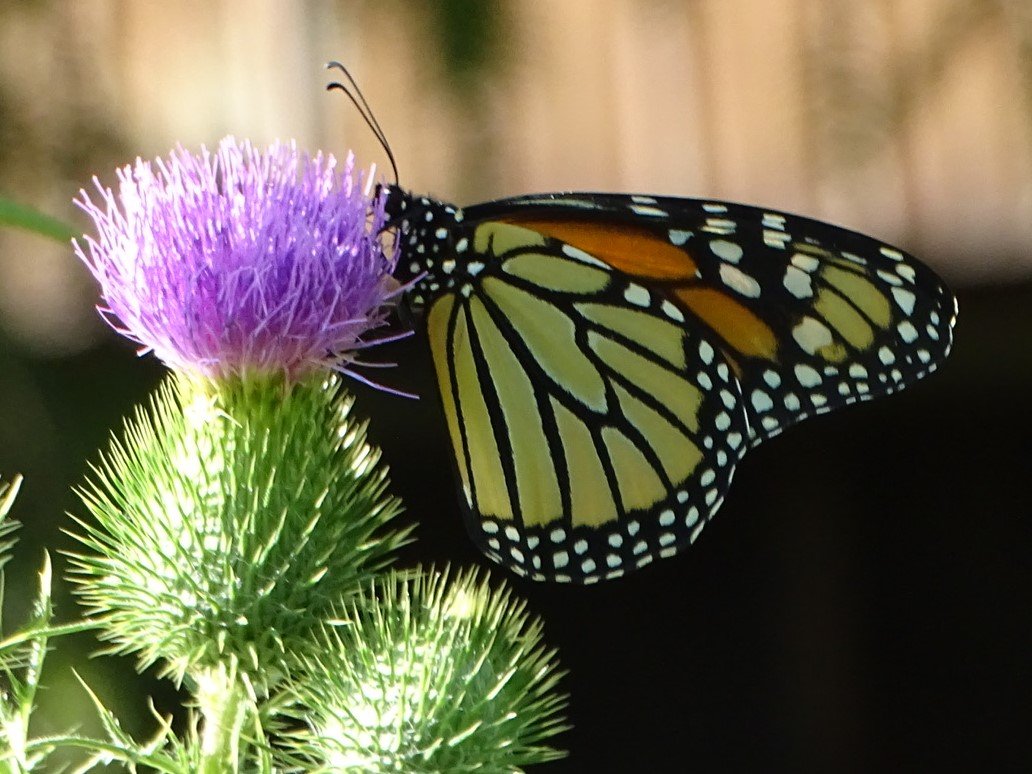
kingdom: Animalia
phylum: Arthropoda
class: Insecta
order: Lepidoptera
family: Nymphalidae
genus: Danaus
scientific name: Danaus plexippus
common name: Monarch
